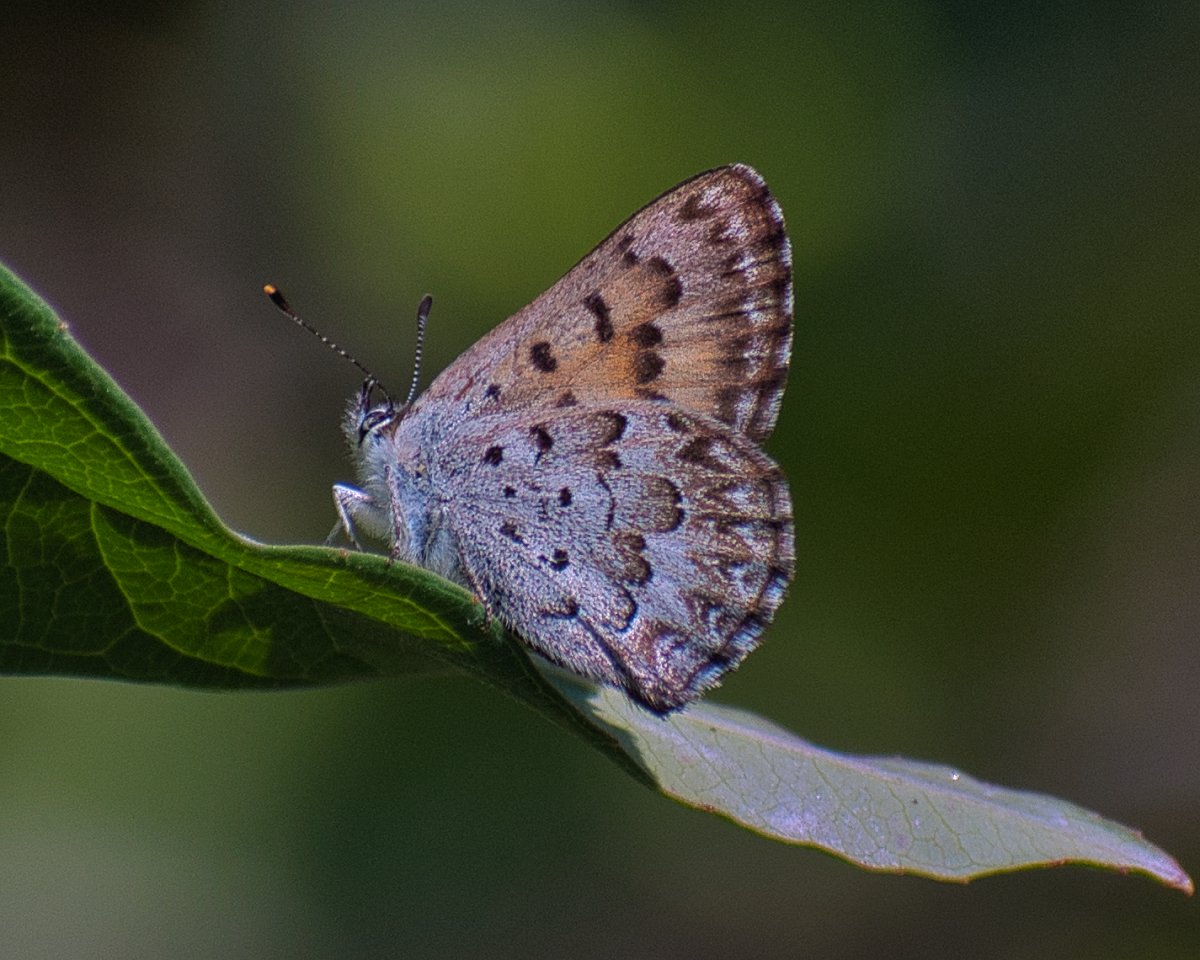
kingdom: Animalia
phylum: Arthropoda
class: Insecta
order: Lepidoptera
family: Lycaenidae
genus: Lycaena
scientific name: Lycaena mariposa
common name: Mariposa Copper
